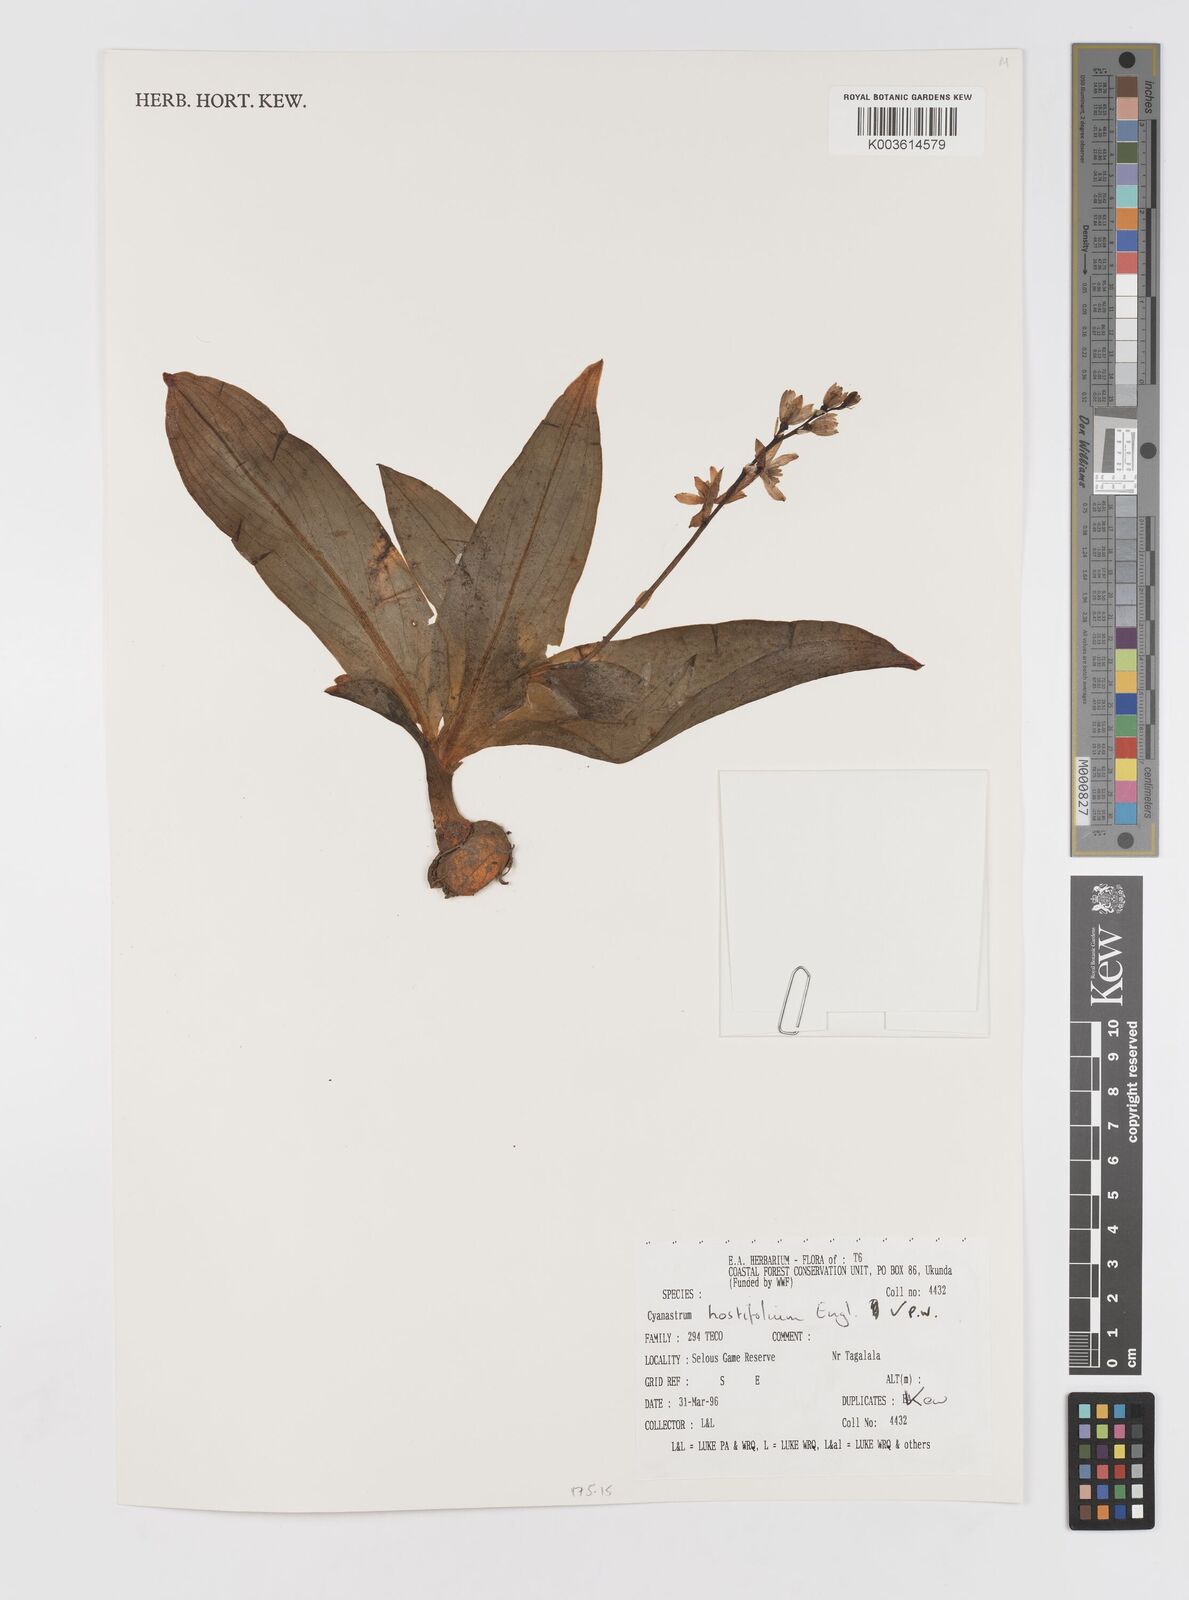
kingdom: Plantae
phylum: Tracheophyta
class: Liliopsida
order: Asparagales
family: Tecophilaeaceae
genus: Kabuyea
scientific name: Kabuyea hostifolia
